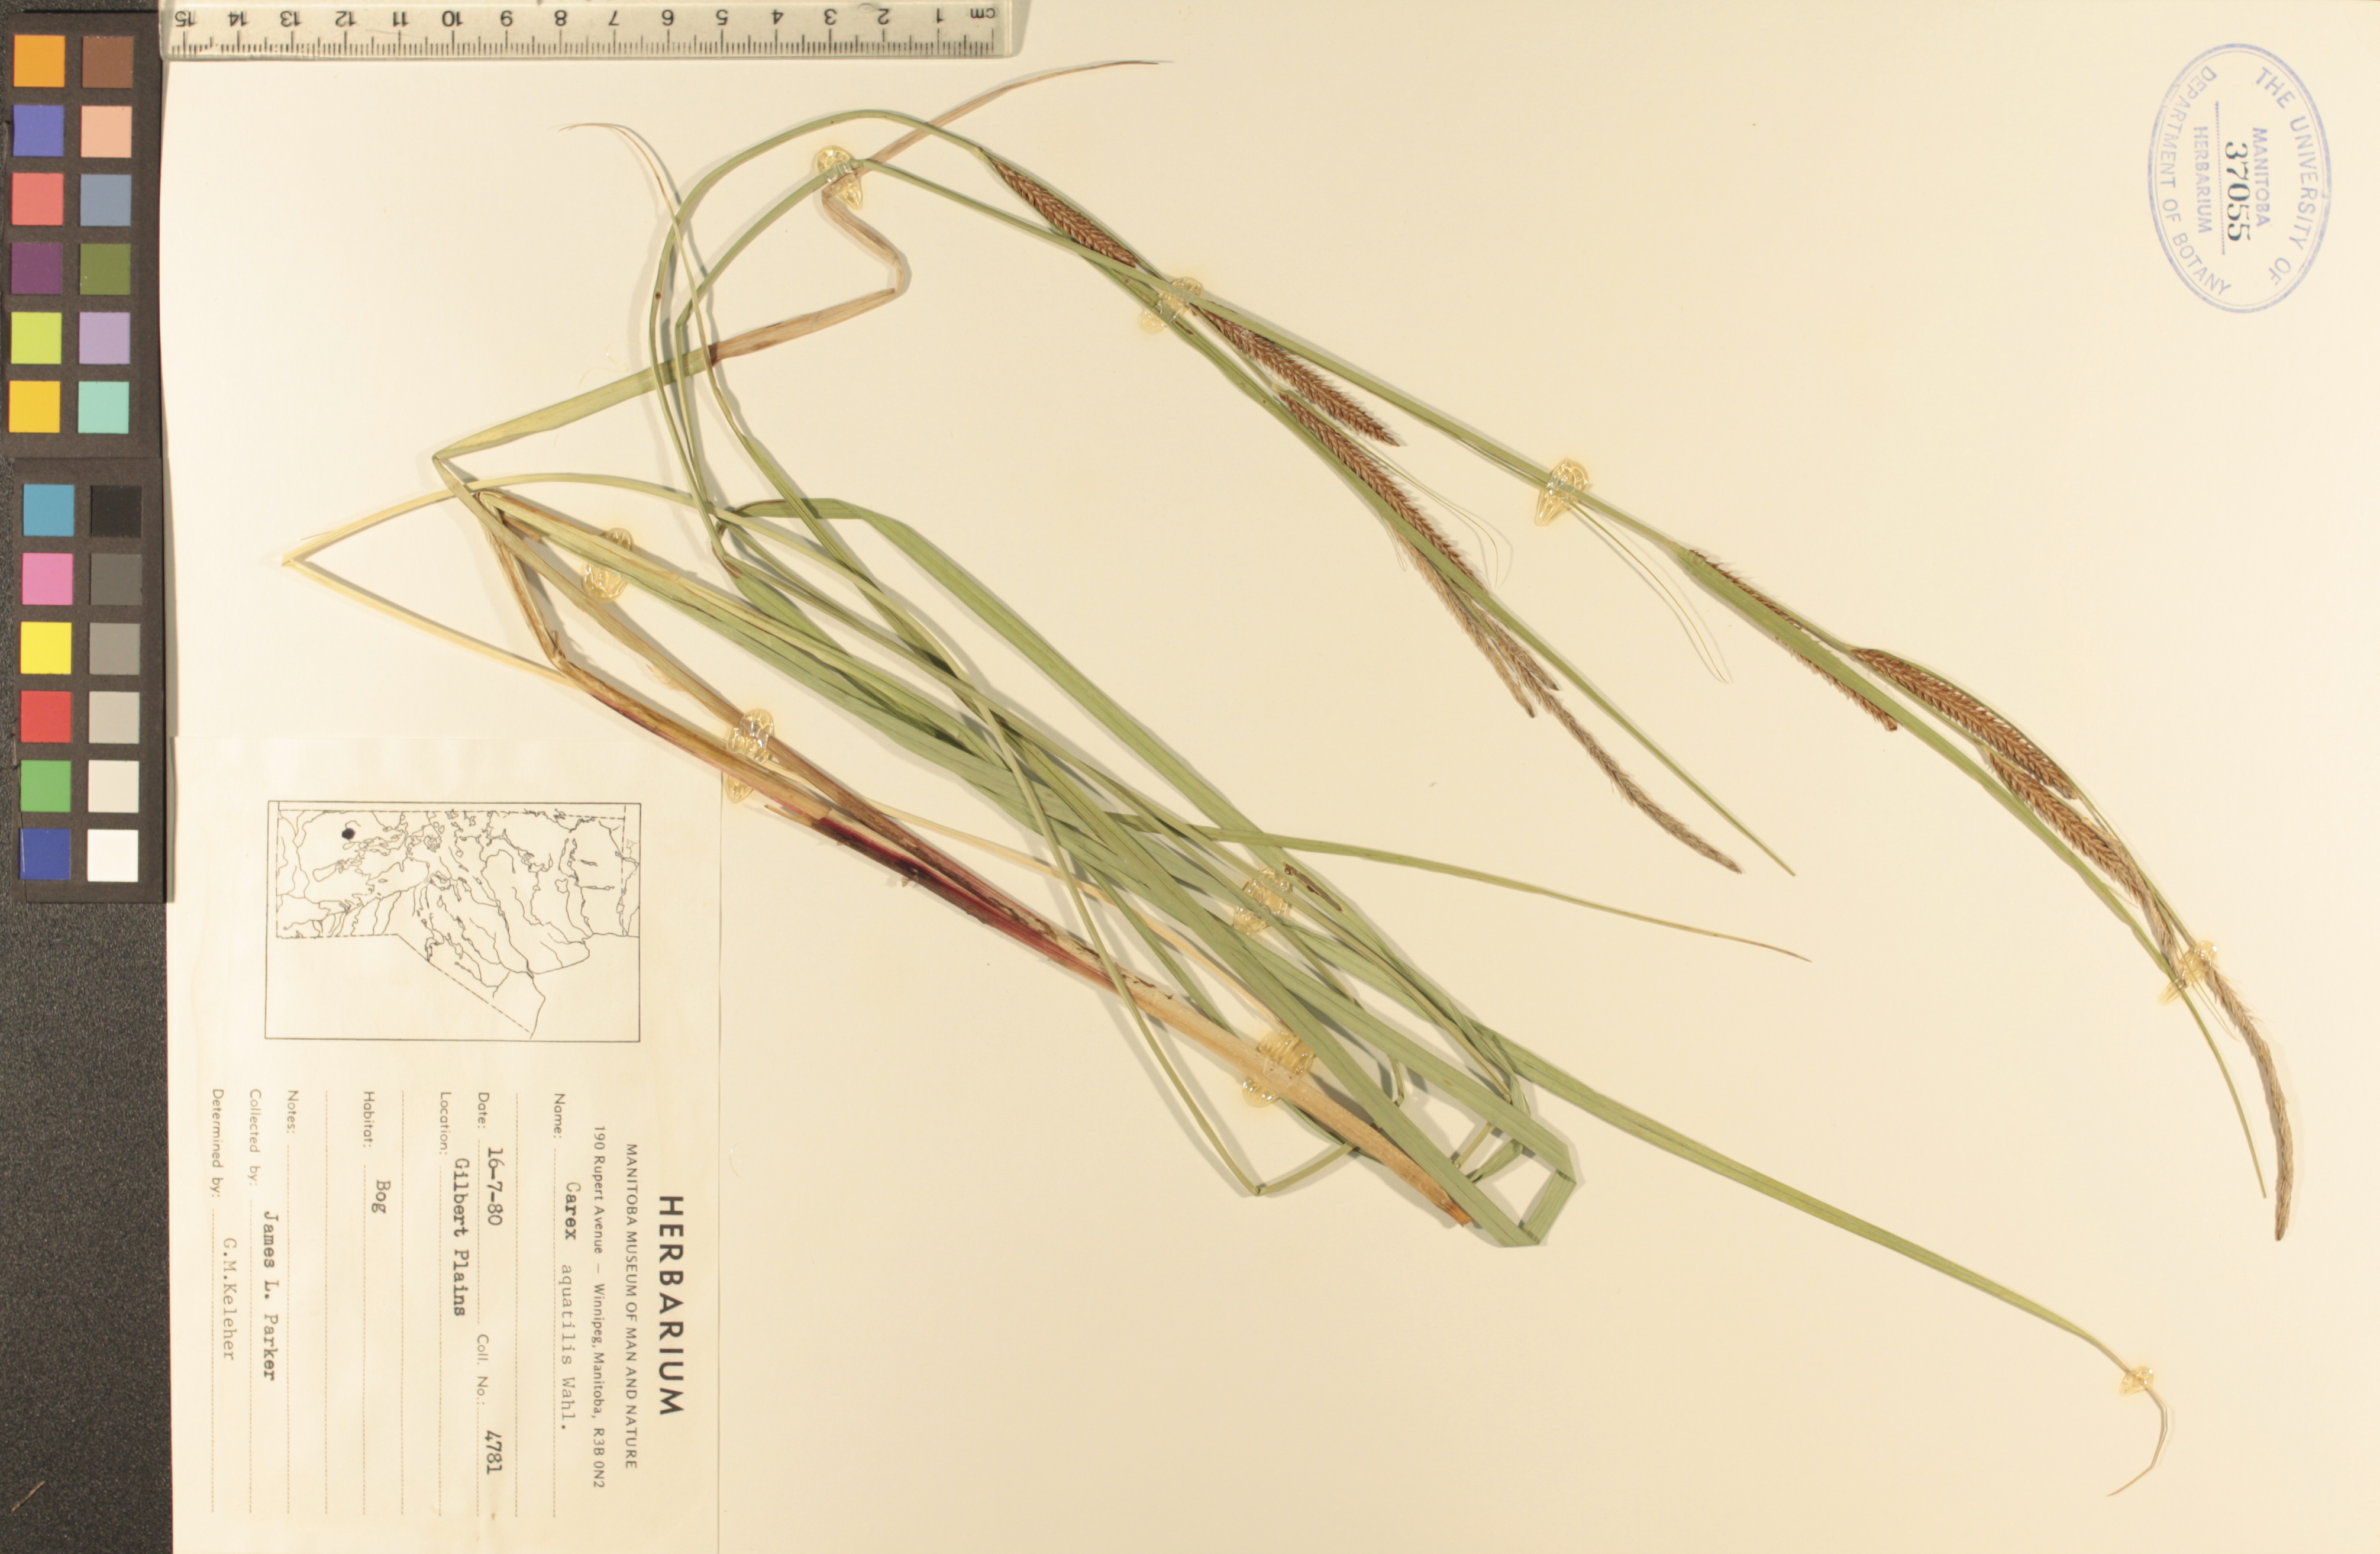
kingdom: Plantae
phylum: Tracheophyta
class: Liliopsida
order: Poales
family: Cyperaceae
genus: Carex
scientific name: Carex aquatilis
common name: Water sedge
